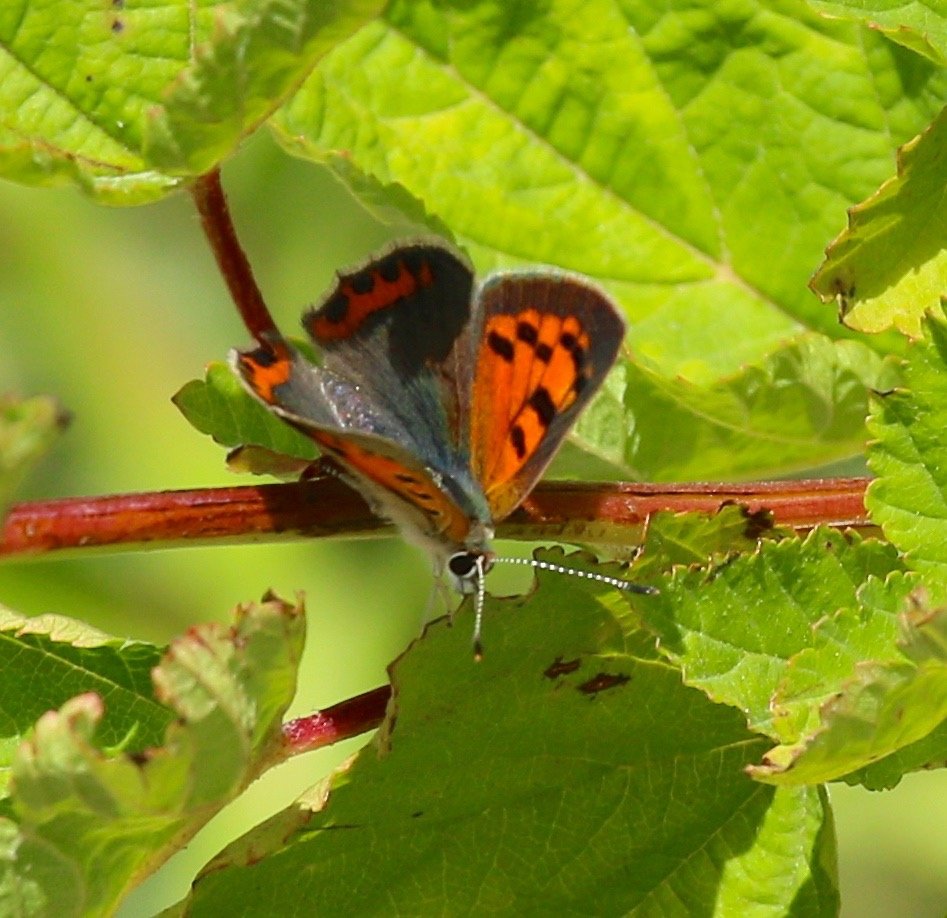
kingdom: Animalia
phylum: Arthropoda
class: Insecta
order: Lepidoptera
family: Lycaenidae
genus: Lycaena
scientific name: Lycaena phlaeas
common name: American Copper
